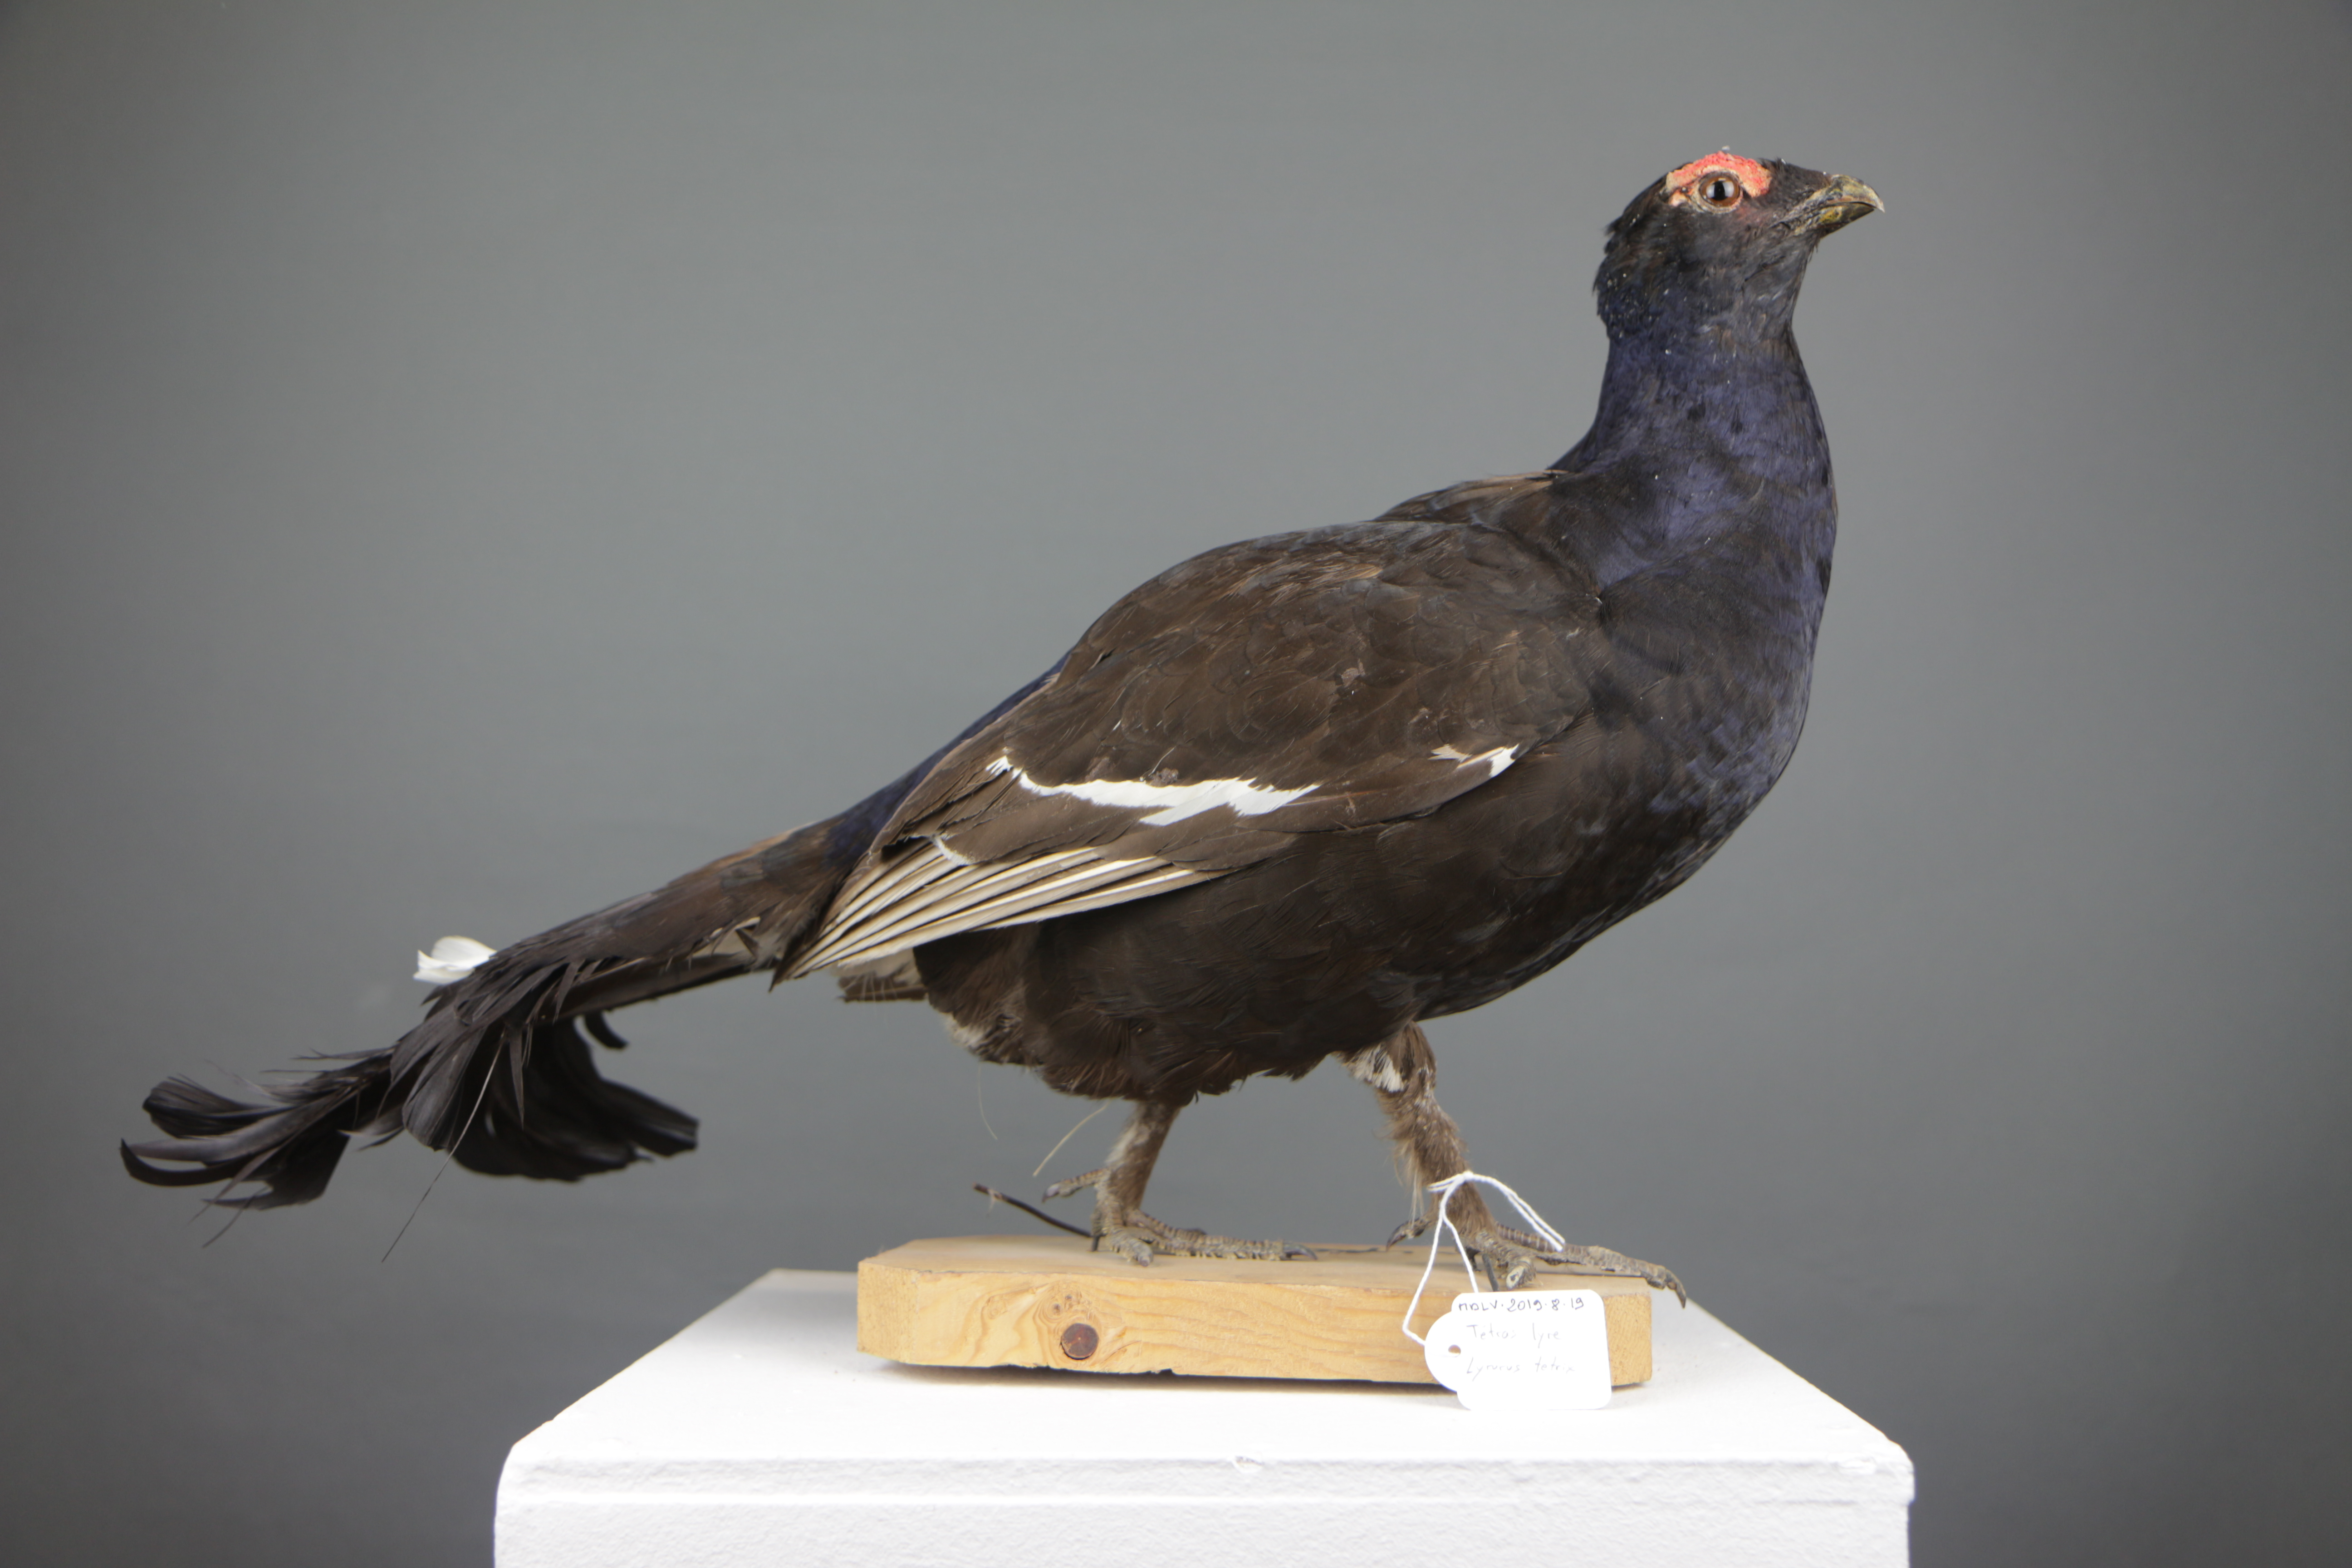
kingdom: Animalia
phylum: Chordata
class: Aves
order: Galliformes
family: Phasianidae
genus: Lyrurus
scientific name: Lyrurus tetrix
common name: Black grouse
